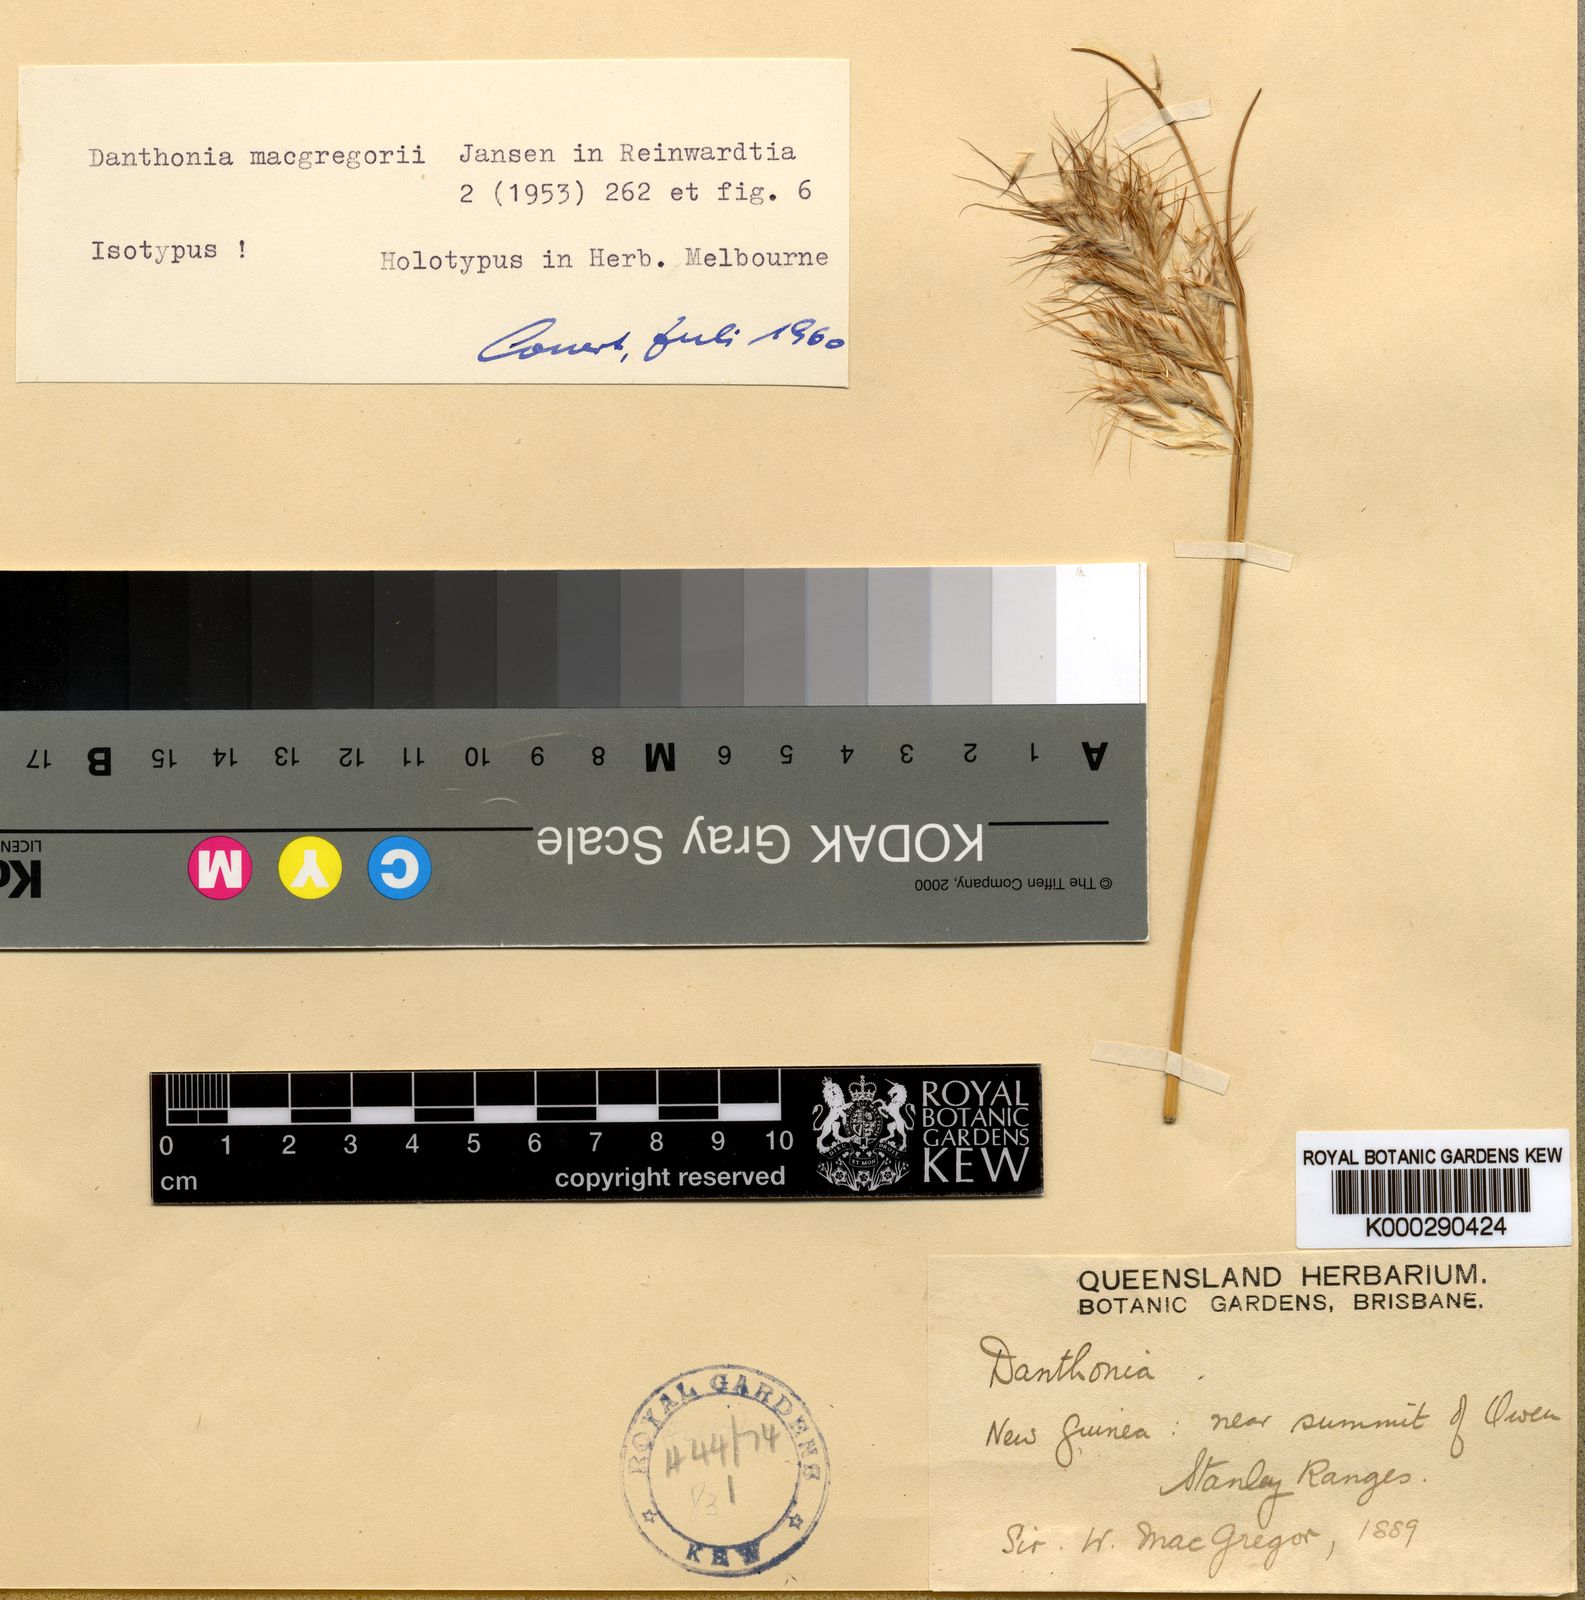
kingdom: Plantae
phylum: Tracheophyta
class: Liliopsida
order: Poales
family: Poaceae
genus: Chimaerochloa
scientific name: Chimaerochloa archboldii
